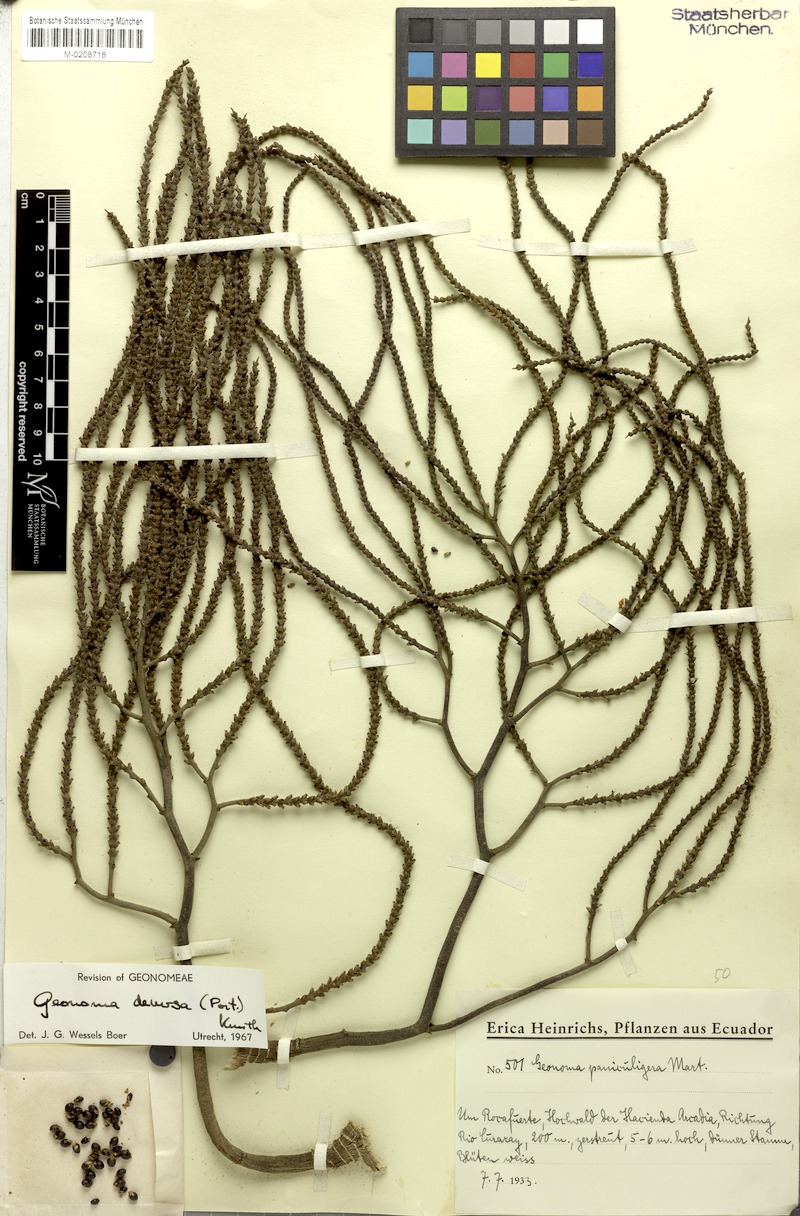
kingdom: Plantae
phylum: Tracheophyta
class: Liliopsida
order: Arecales
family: Arecaceae
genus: Geonoma
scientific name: Geonoma deversa
